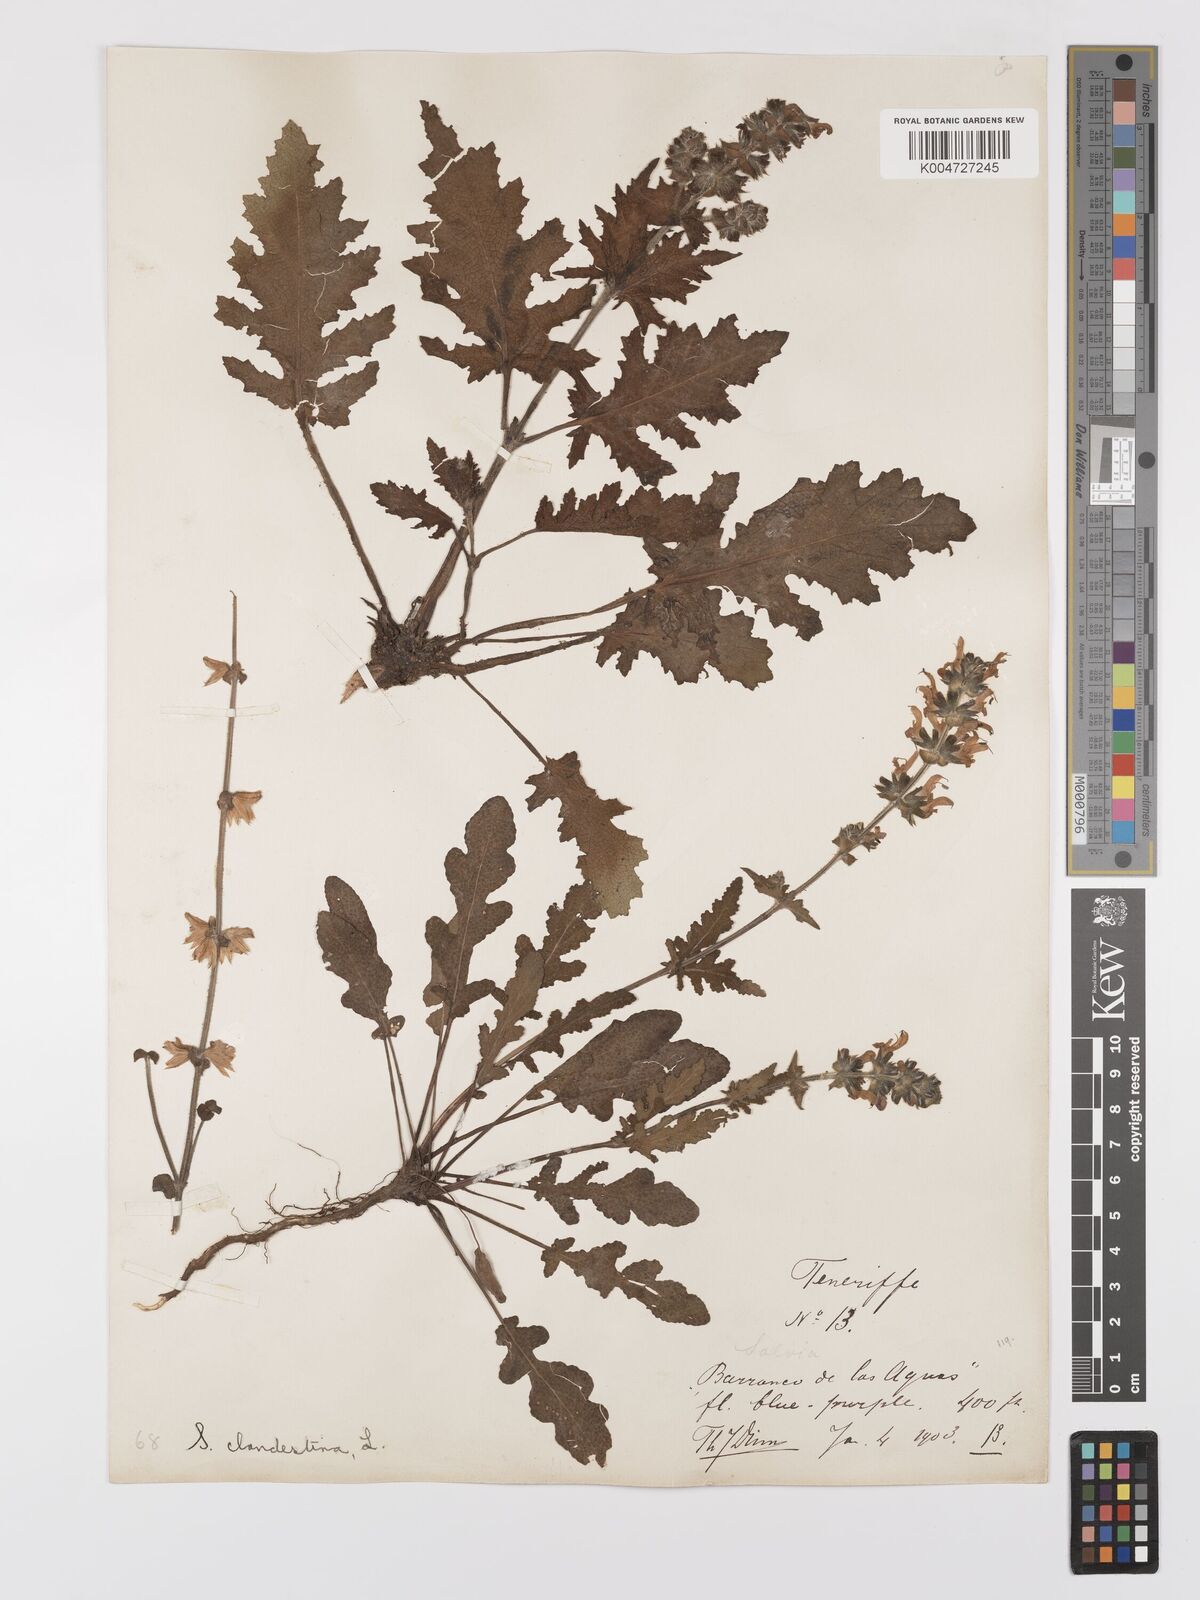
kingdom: Plantae
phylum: Tracheophyta
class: Magnoliopsida
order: Lamiales
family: Lamiaceae
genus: Salvia
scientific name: Salvia verbenaca
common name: Wild clary
